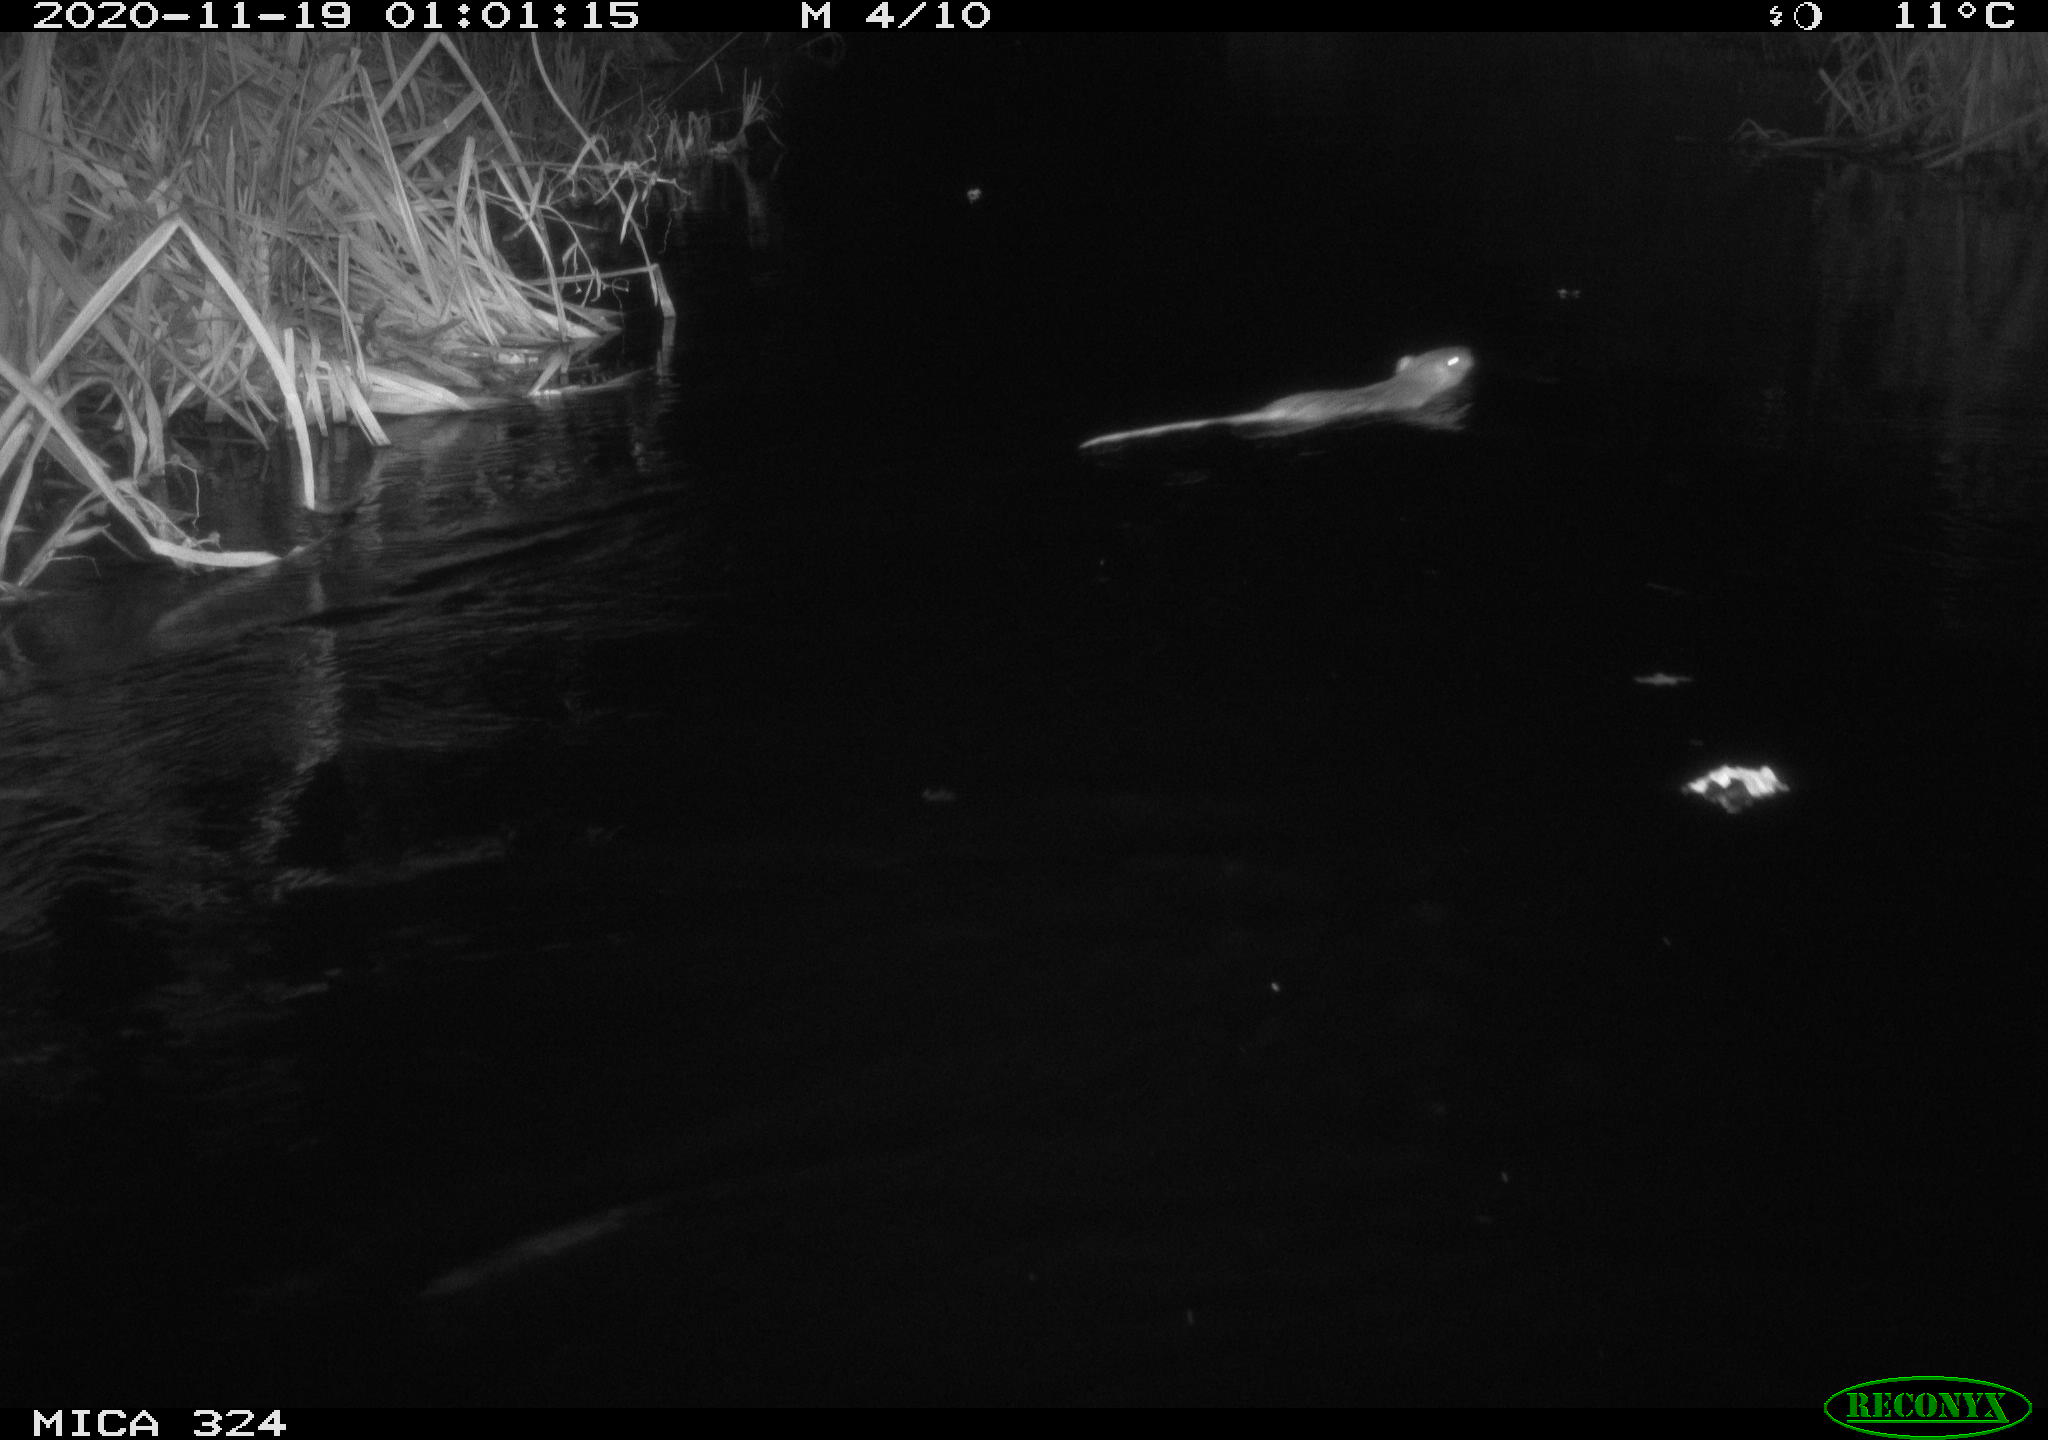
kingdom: Animalia
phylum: Chordata
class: Mammalia
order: Rodentia
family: Myocastoridae
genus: Myocastor
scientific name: Myocastor coypus
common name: Coypu
